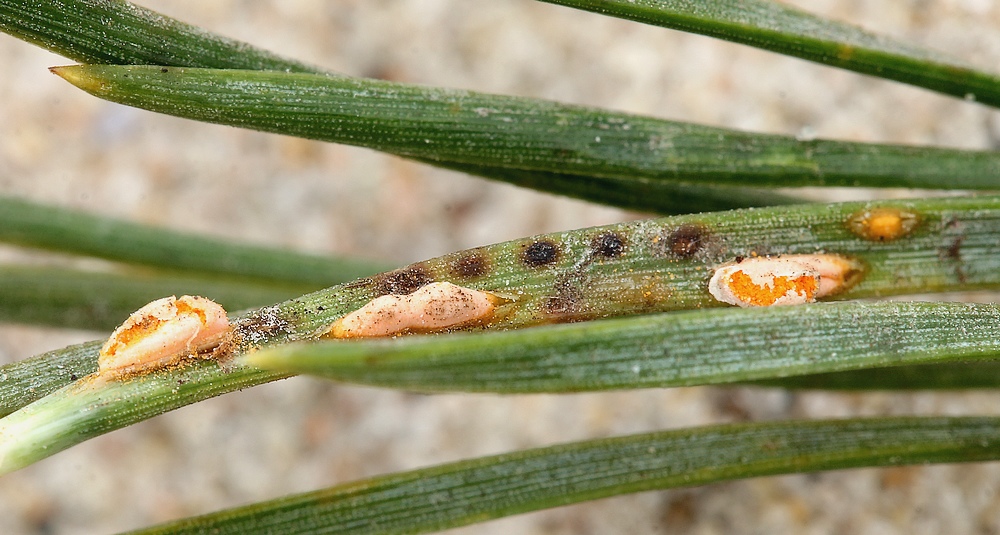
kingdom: Fungi
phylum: Basidiomycota
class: Pucciniomycetes
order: Pucciniales
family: Coleosporiaceae
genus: Coleosporium
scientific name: Coleosporium tussilaginis
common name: almindelig fyrrenålerust
